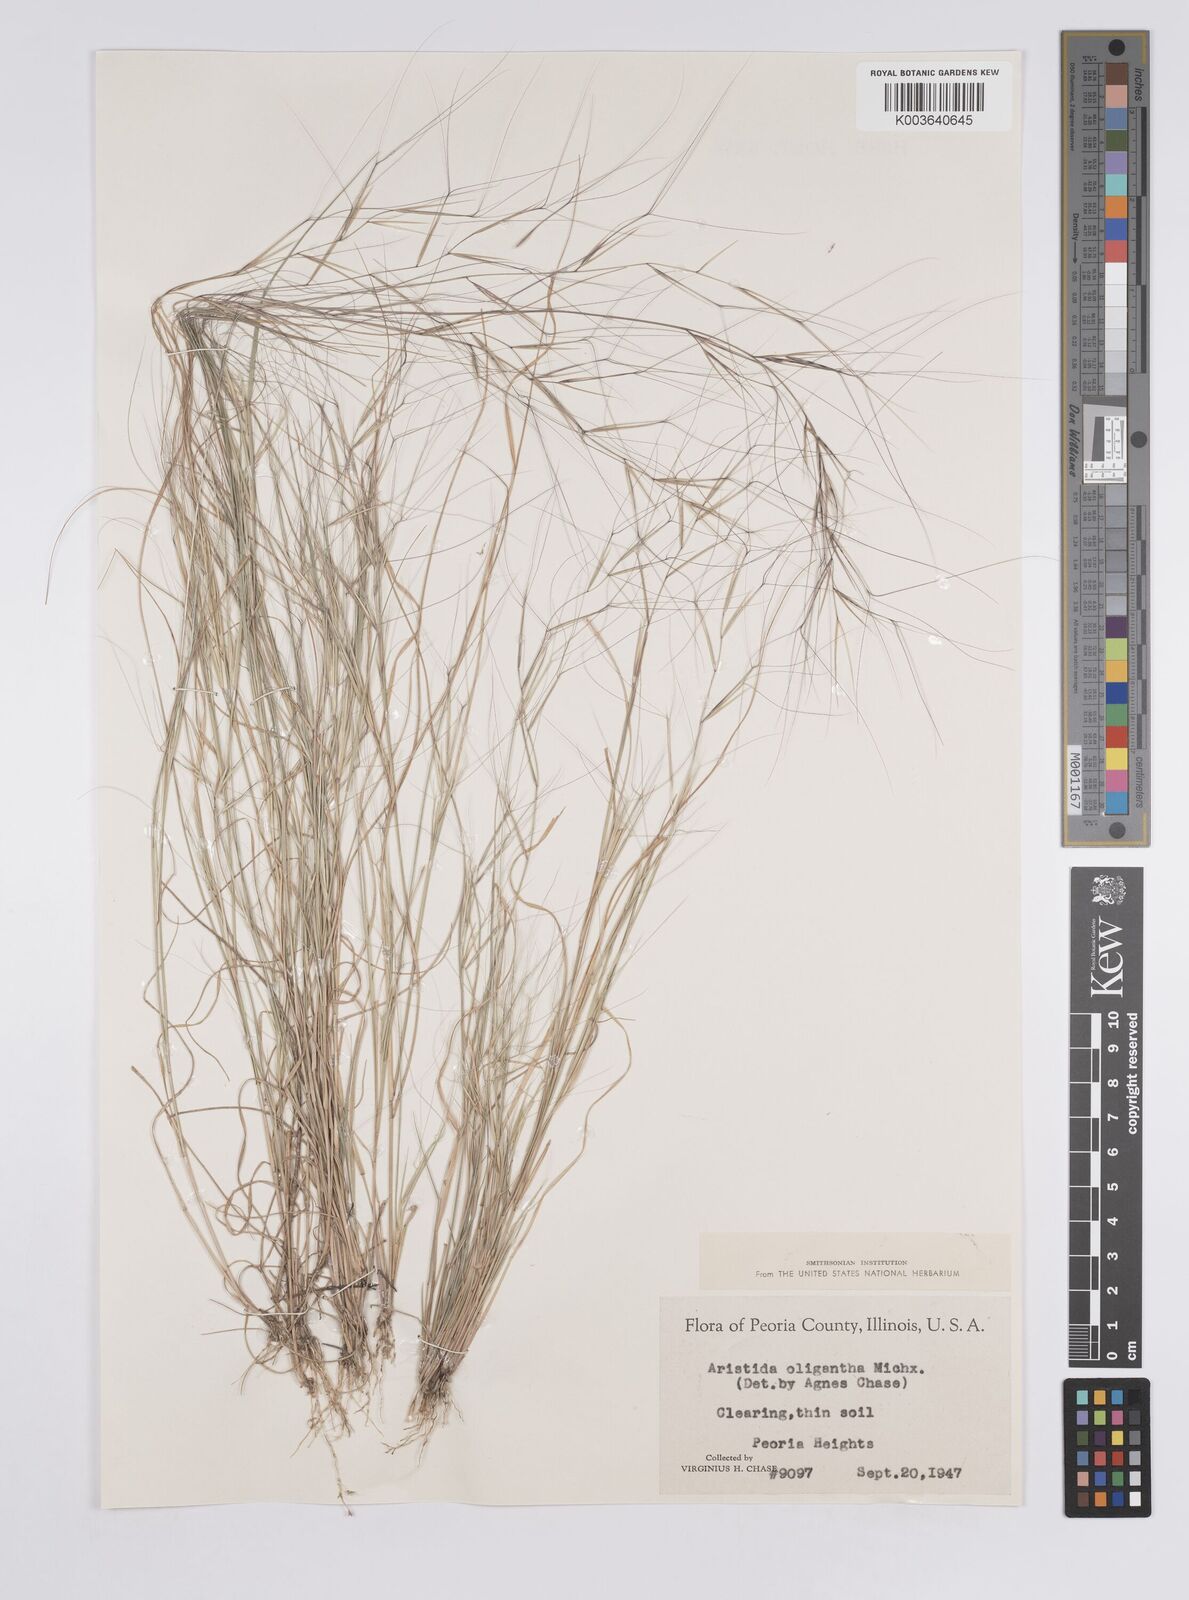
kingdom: Plantae
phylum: Tracheophyta
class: Liliopsida
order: Poales
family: Poaceae
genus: Aristida
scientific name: Aristida oligantha
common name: Few-flowered aristida
